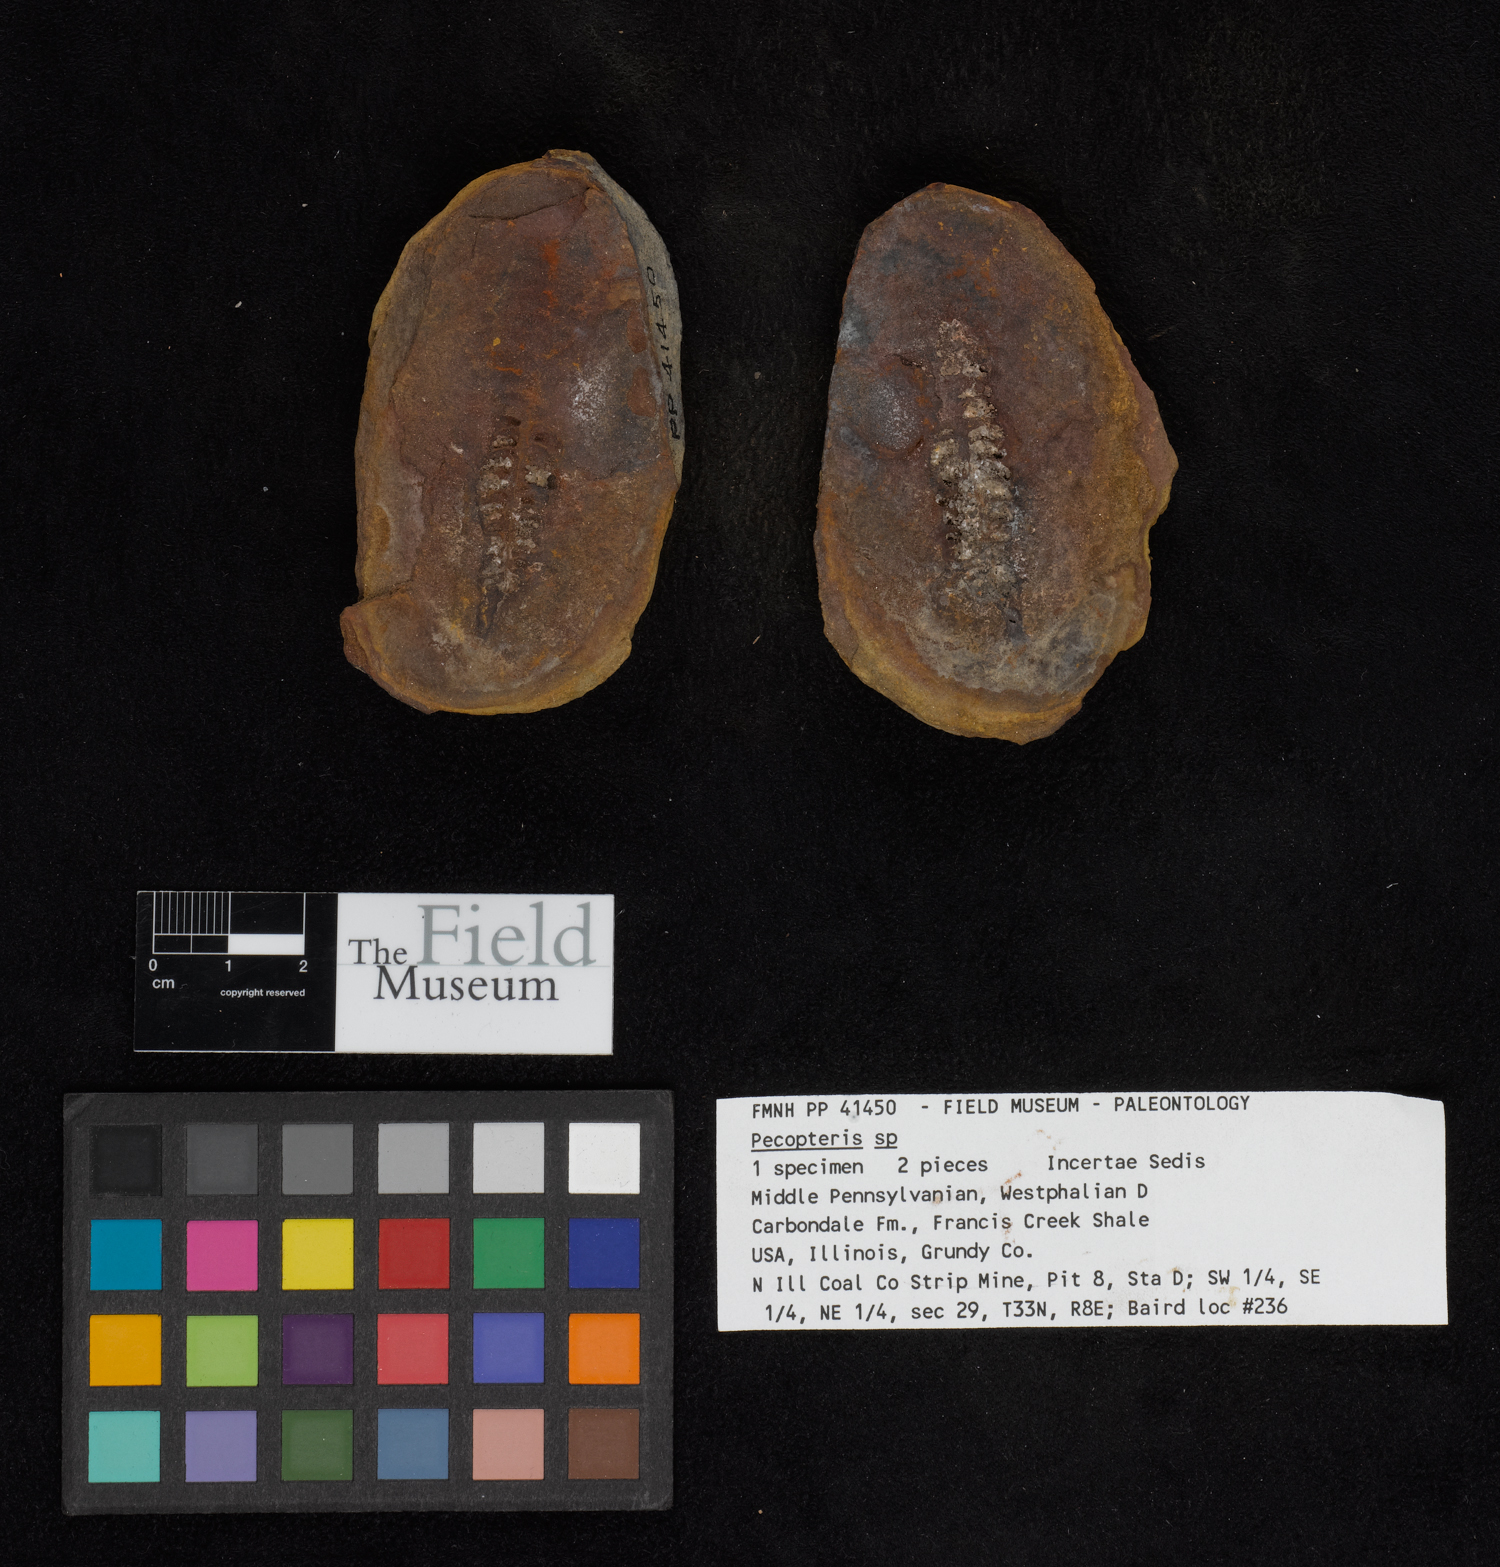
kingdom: Plantae
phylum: Tracheophyta
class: Polypodiopsida
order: Marattiales
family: Asterothecaceae
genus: Pecopteris
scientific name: Pecopteris
